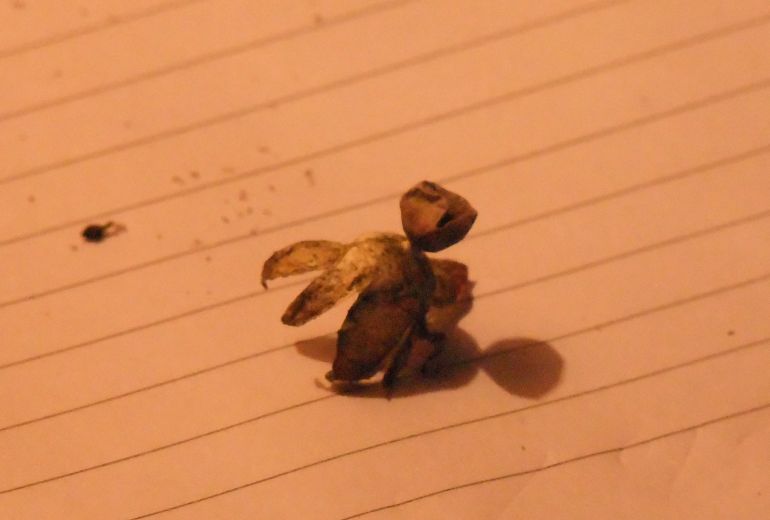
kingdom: Fungi
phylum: Basidiomycota
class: Agaricomycetes
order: Geastrales
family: Geastraceae
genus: Geastrum
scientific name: Geastrum striatum
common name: dværg-stjernebold
